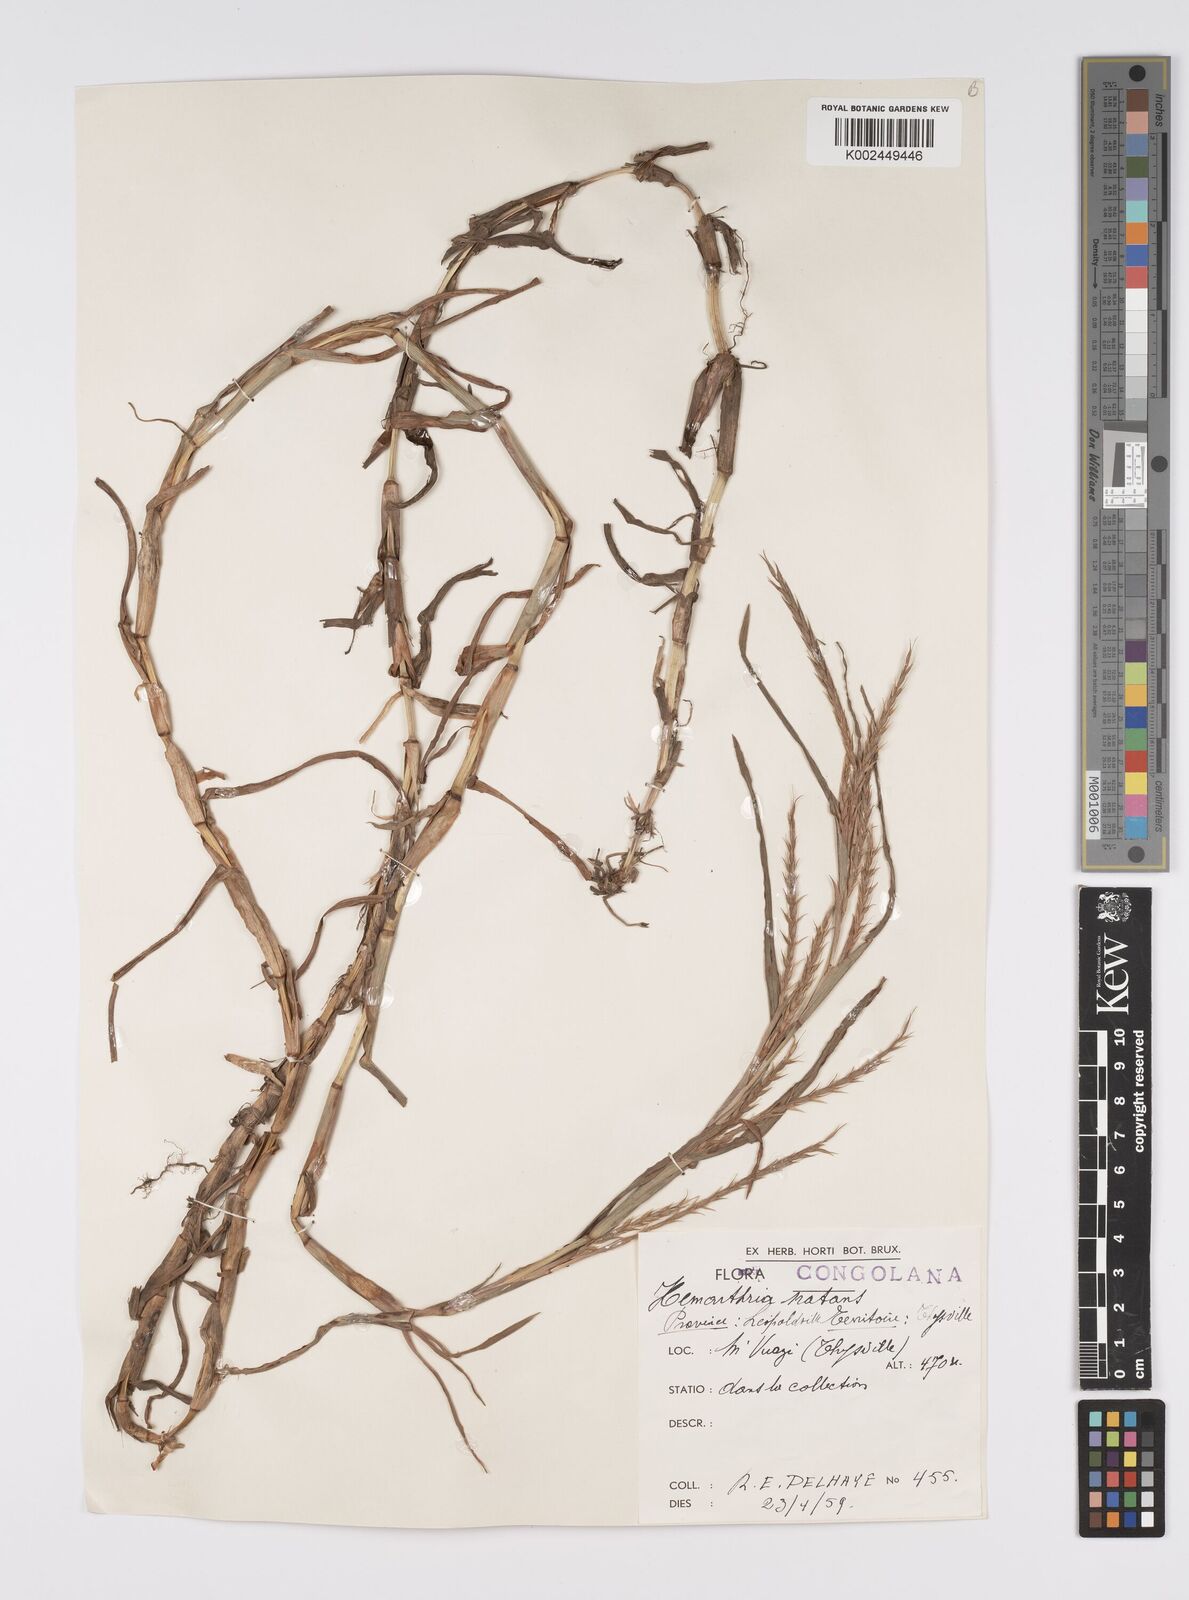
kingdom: Plantae
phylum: Tracheophyta
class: Liliopsida
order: Poales
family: Poaceae
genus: Hemarthria
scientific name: Hemarthria natans
